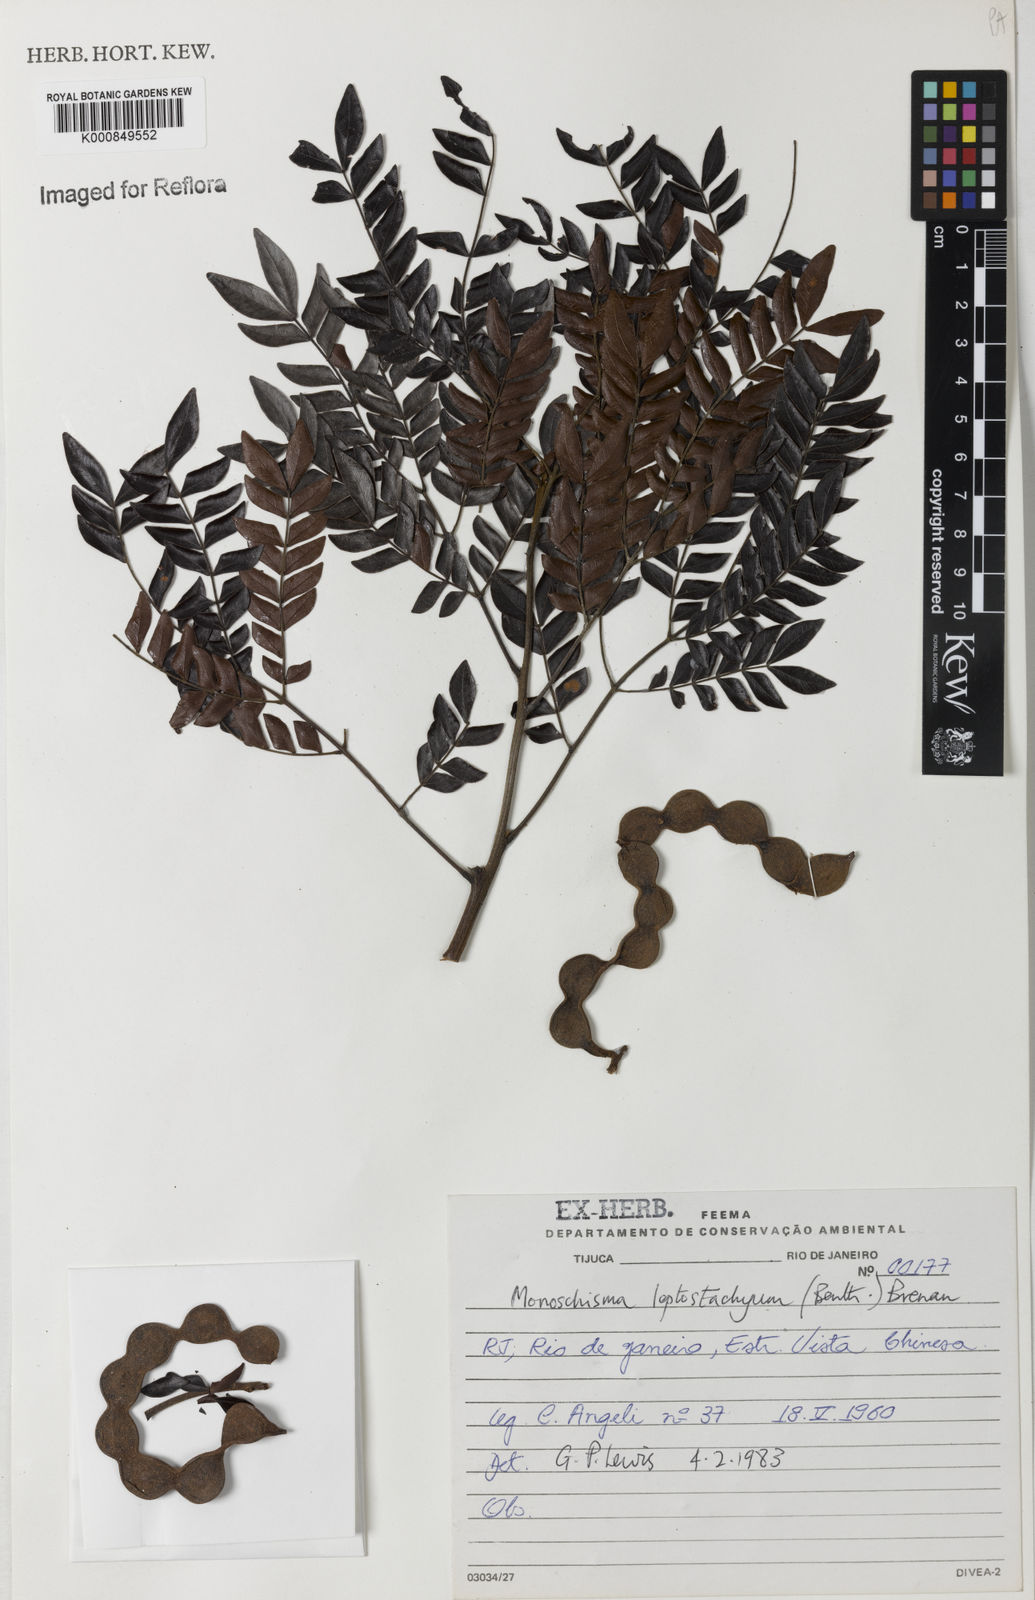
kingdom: Plantae
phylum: Tracheophyta
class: Magnoliopsida
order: Fabales
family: Fabaceae
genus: Pseudopiptadenia
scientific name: Pseudopiptadenia leptostachya
